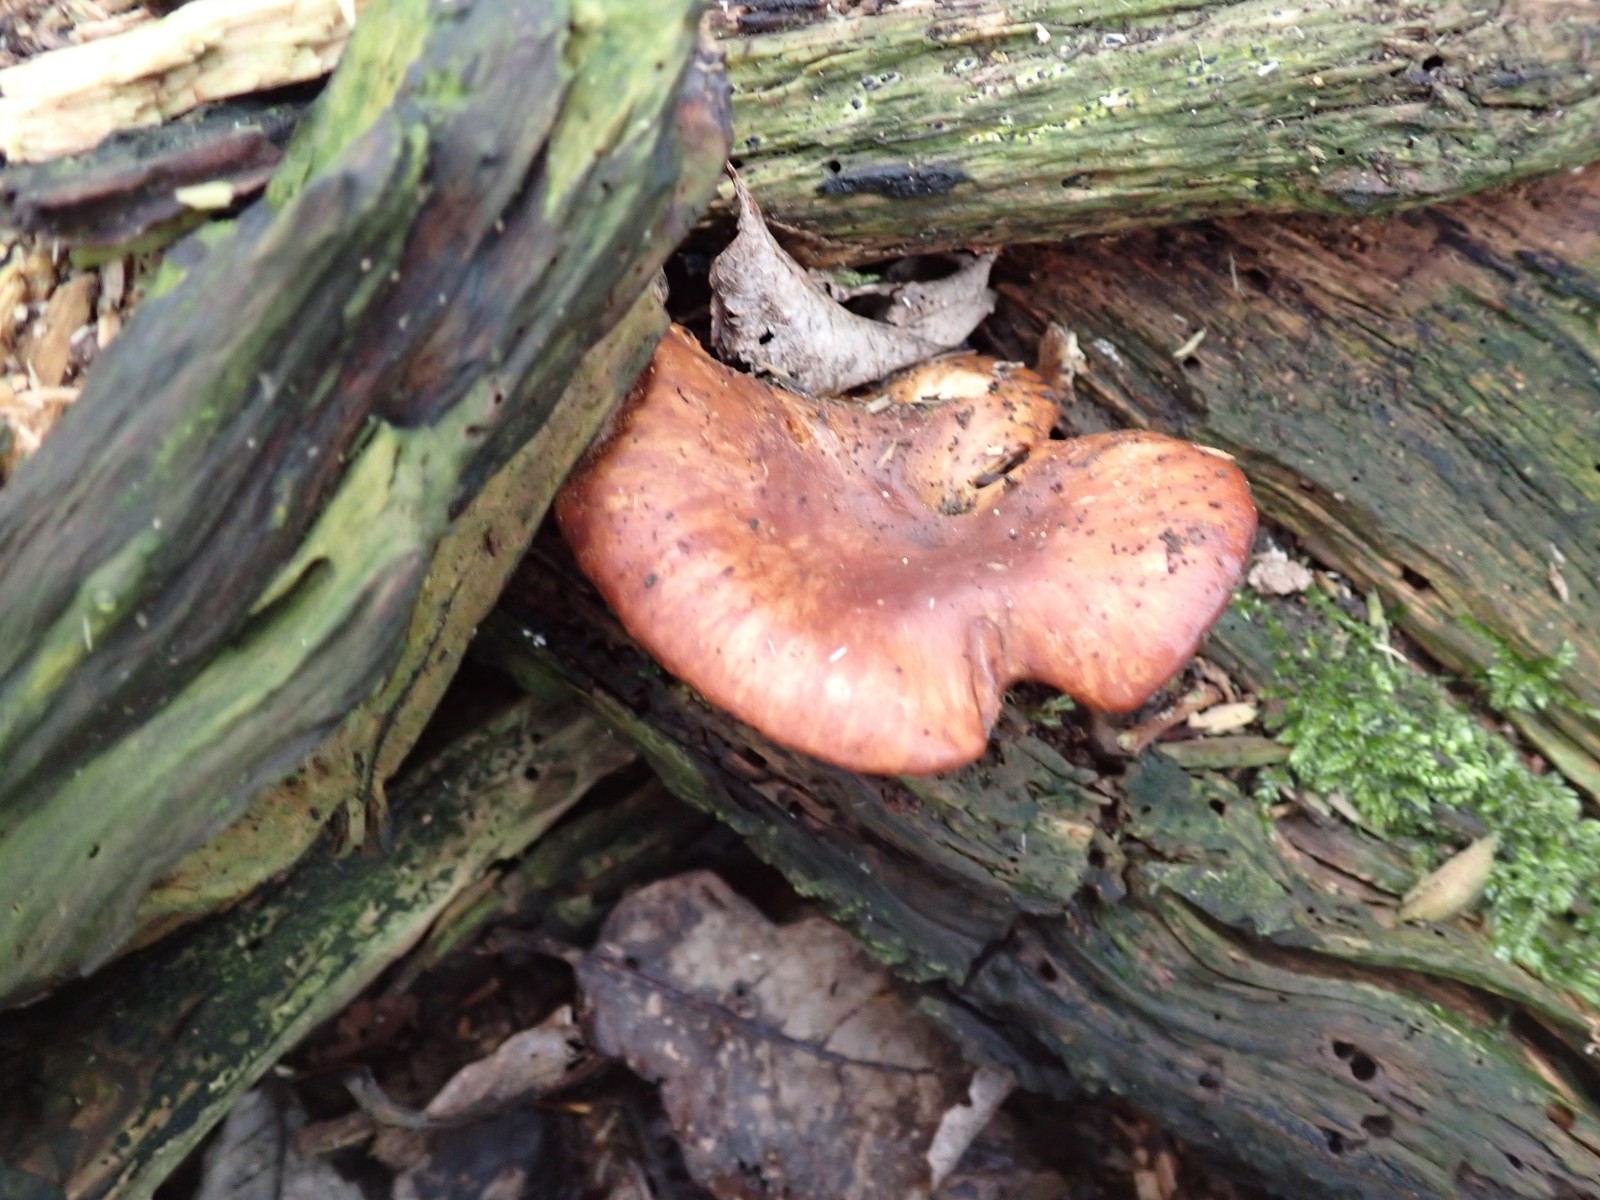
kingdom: Fungi
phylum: Basidiomycota
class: Agaricomycetes
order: Agaricales
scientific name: Agaricales
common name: champignonordenen
